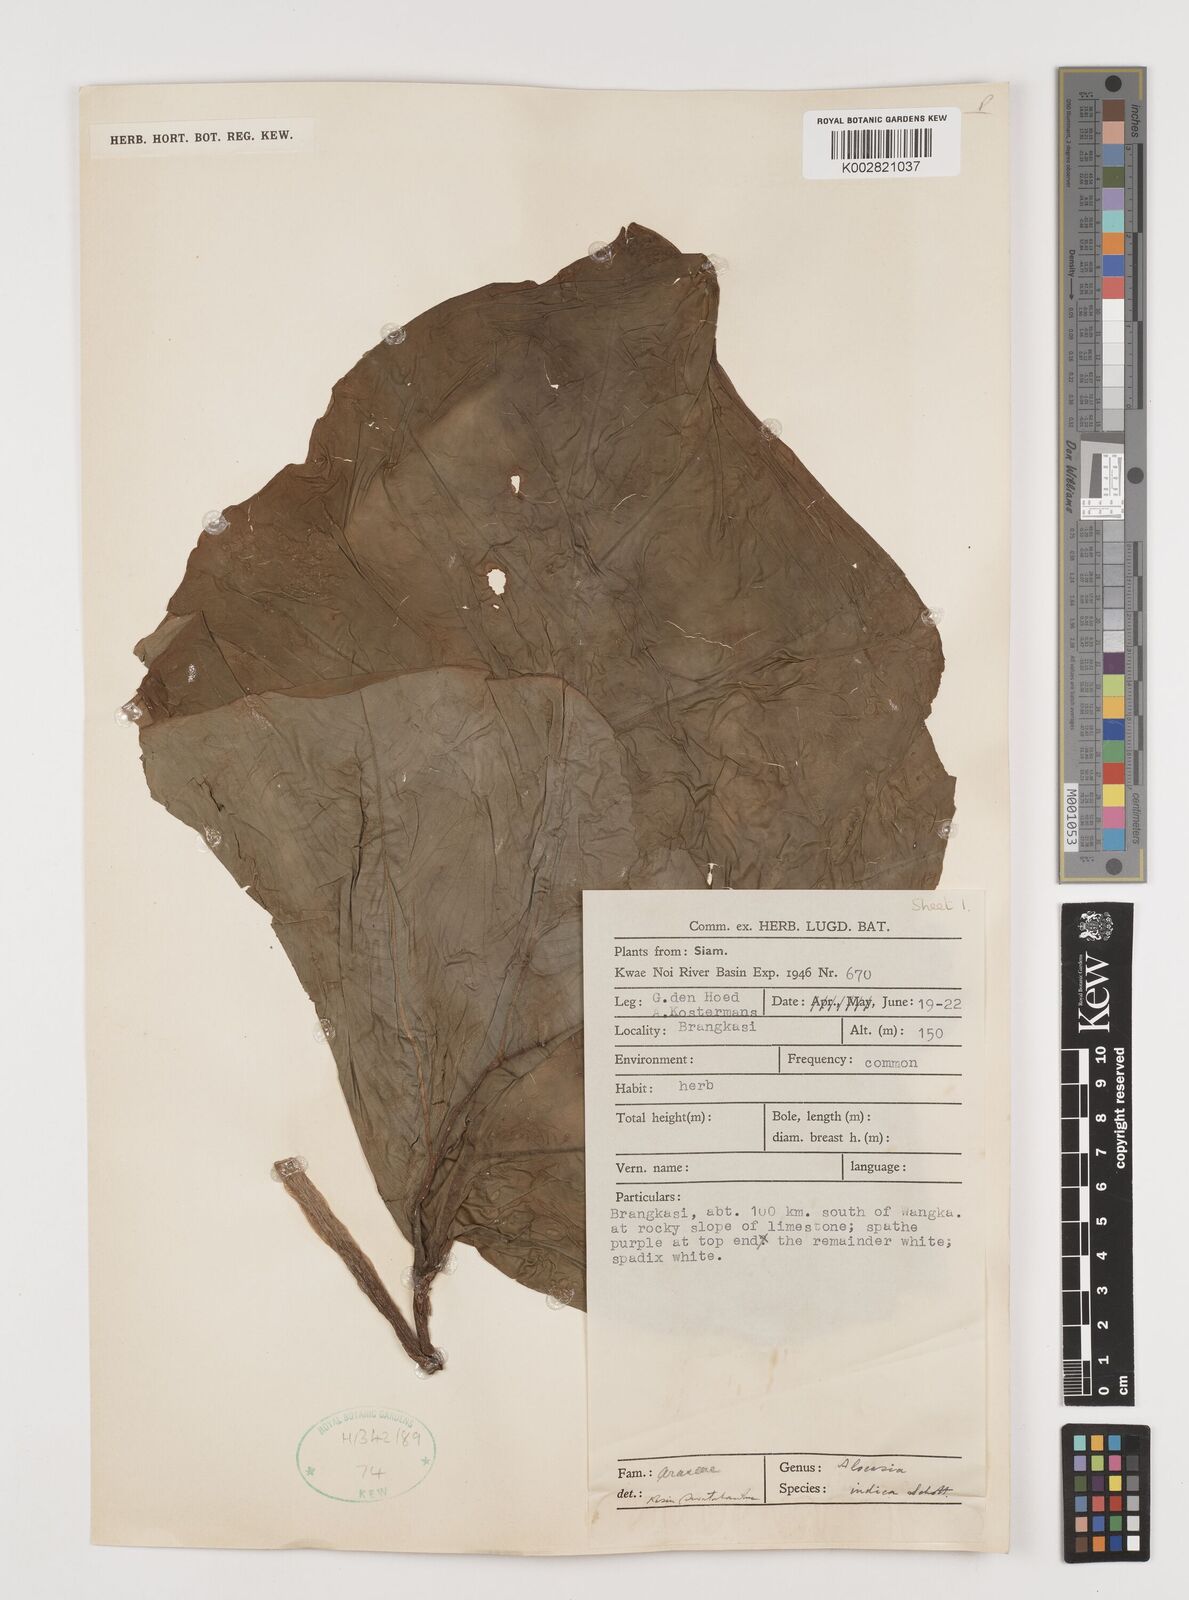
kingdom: Plantae
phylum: Tracheophyta
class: Liliopsida
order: Alismatales
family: Araceae
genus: Alocasia
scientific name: Alocasia macrorrhizos
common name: Giant taro
